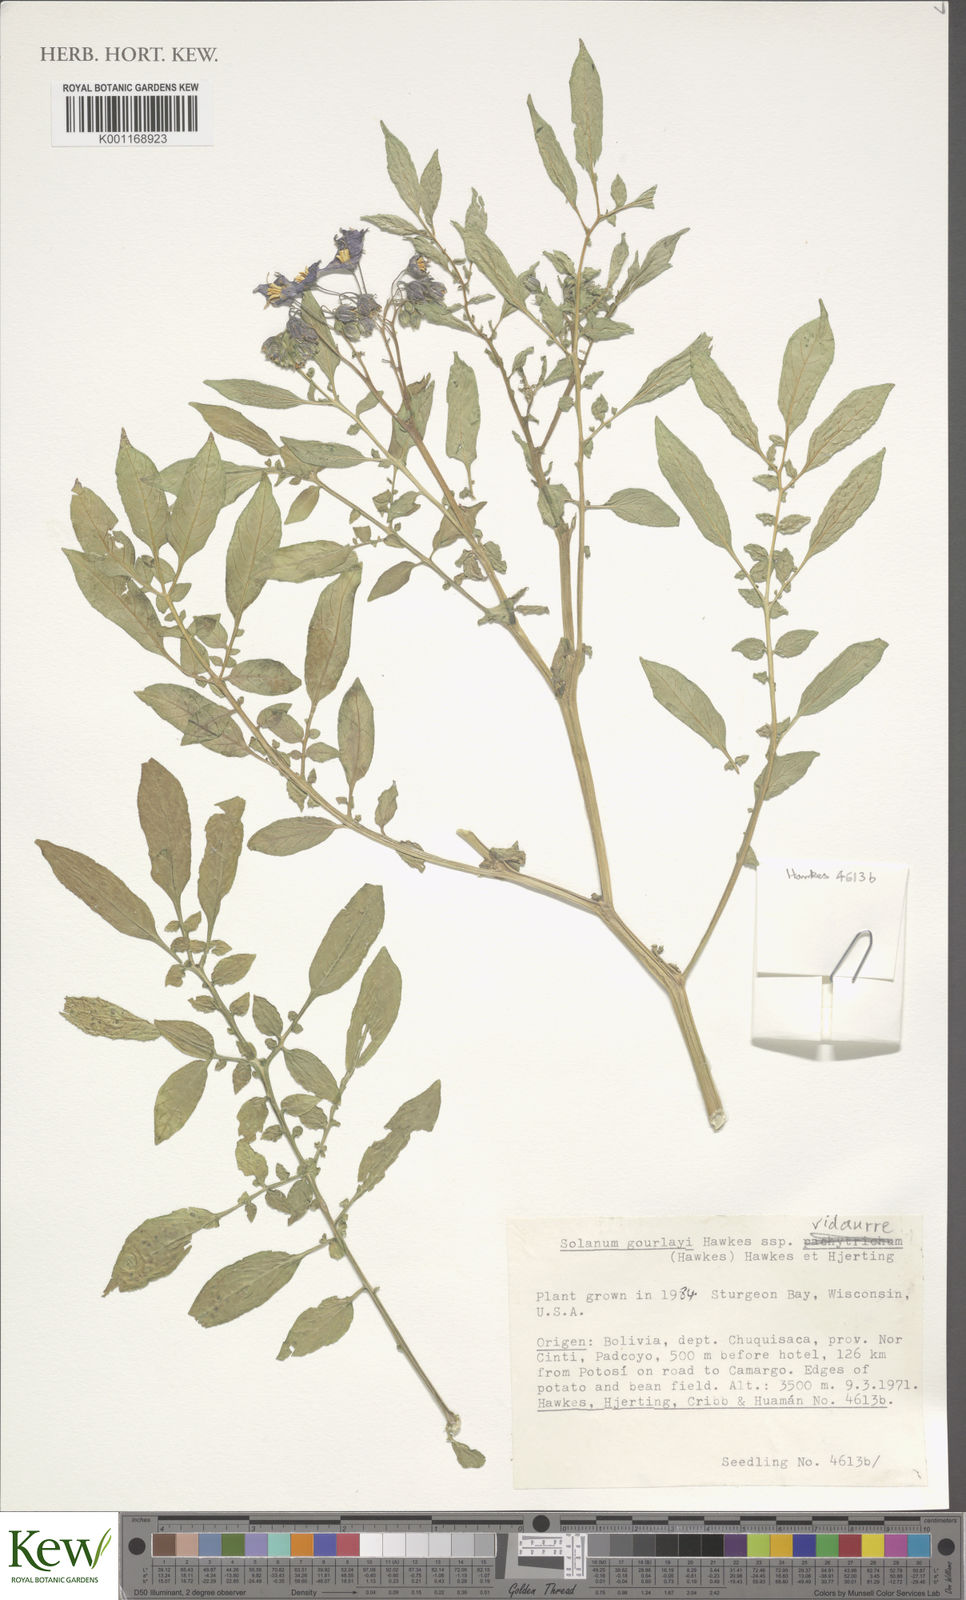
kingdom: Plantae
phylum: Tracheophyta
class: Magnoliopsida
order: Solanales
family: Solanaceae
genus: Solanum
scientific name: Solanum brevicaule
